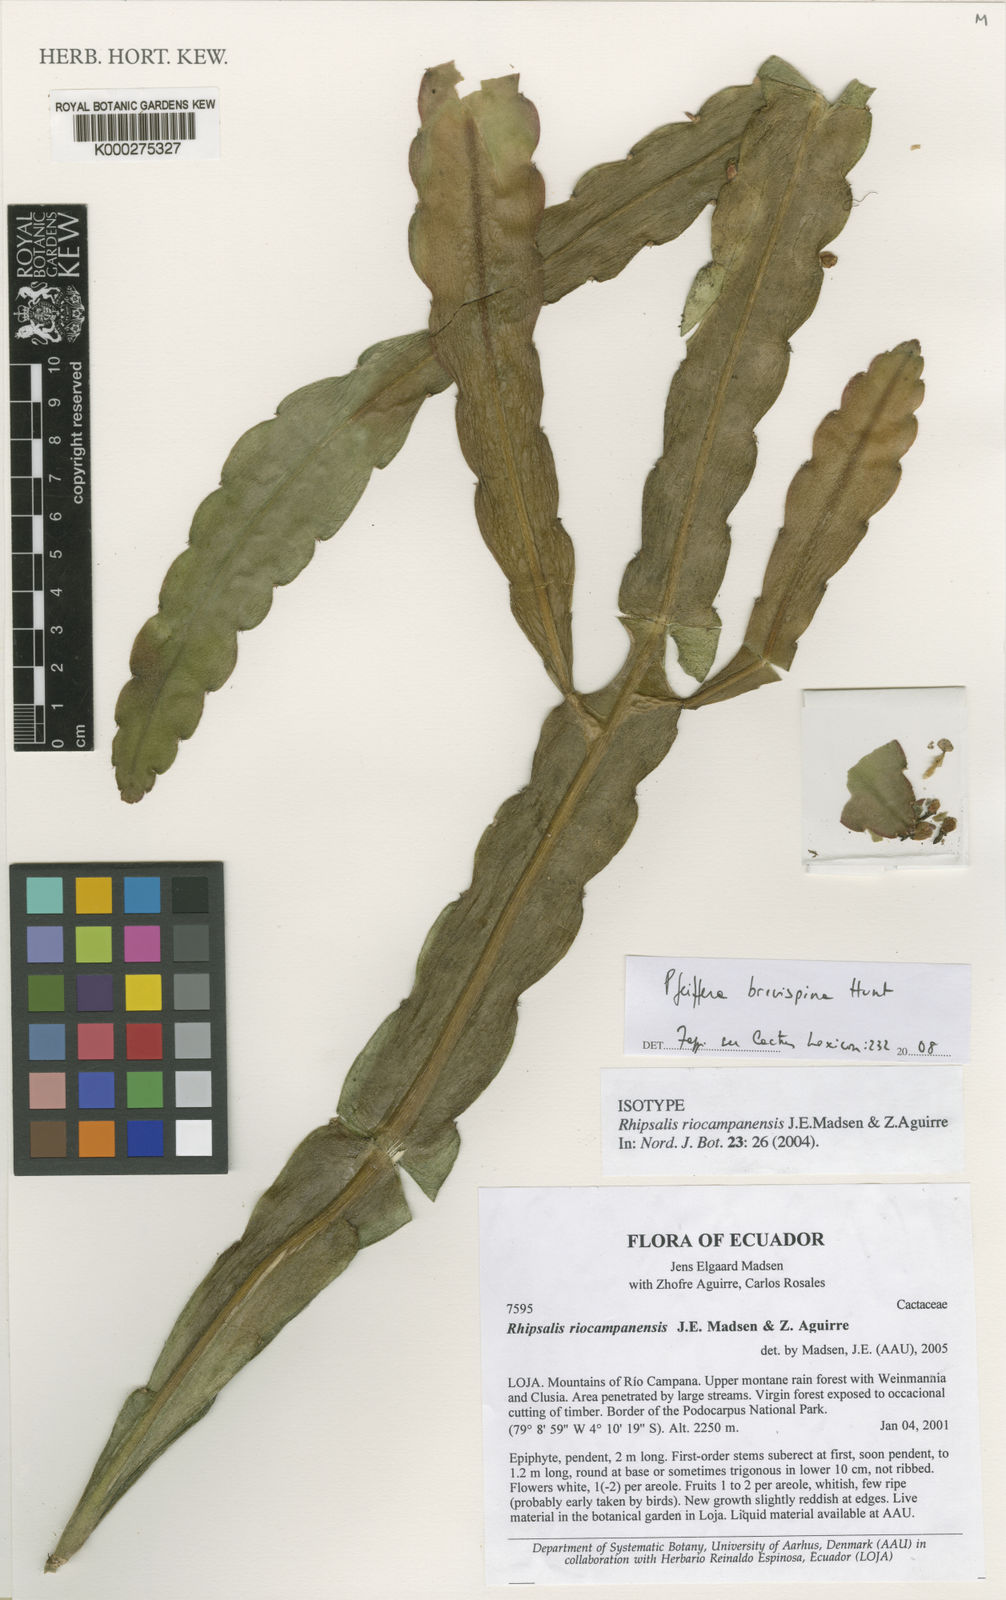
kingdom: Plantae
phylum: Tracheophyta
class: Magnoliopsida
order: Caryophyllales
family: Cactaceae
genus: Lymanbensonia
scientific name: Lymanbensonia brevispina
